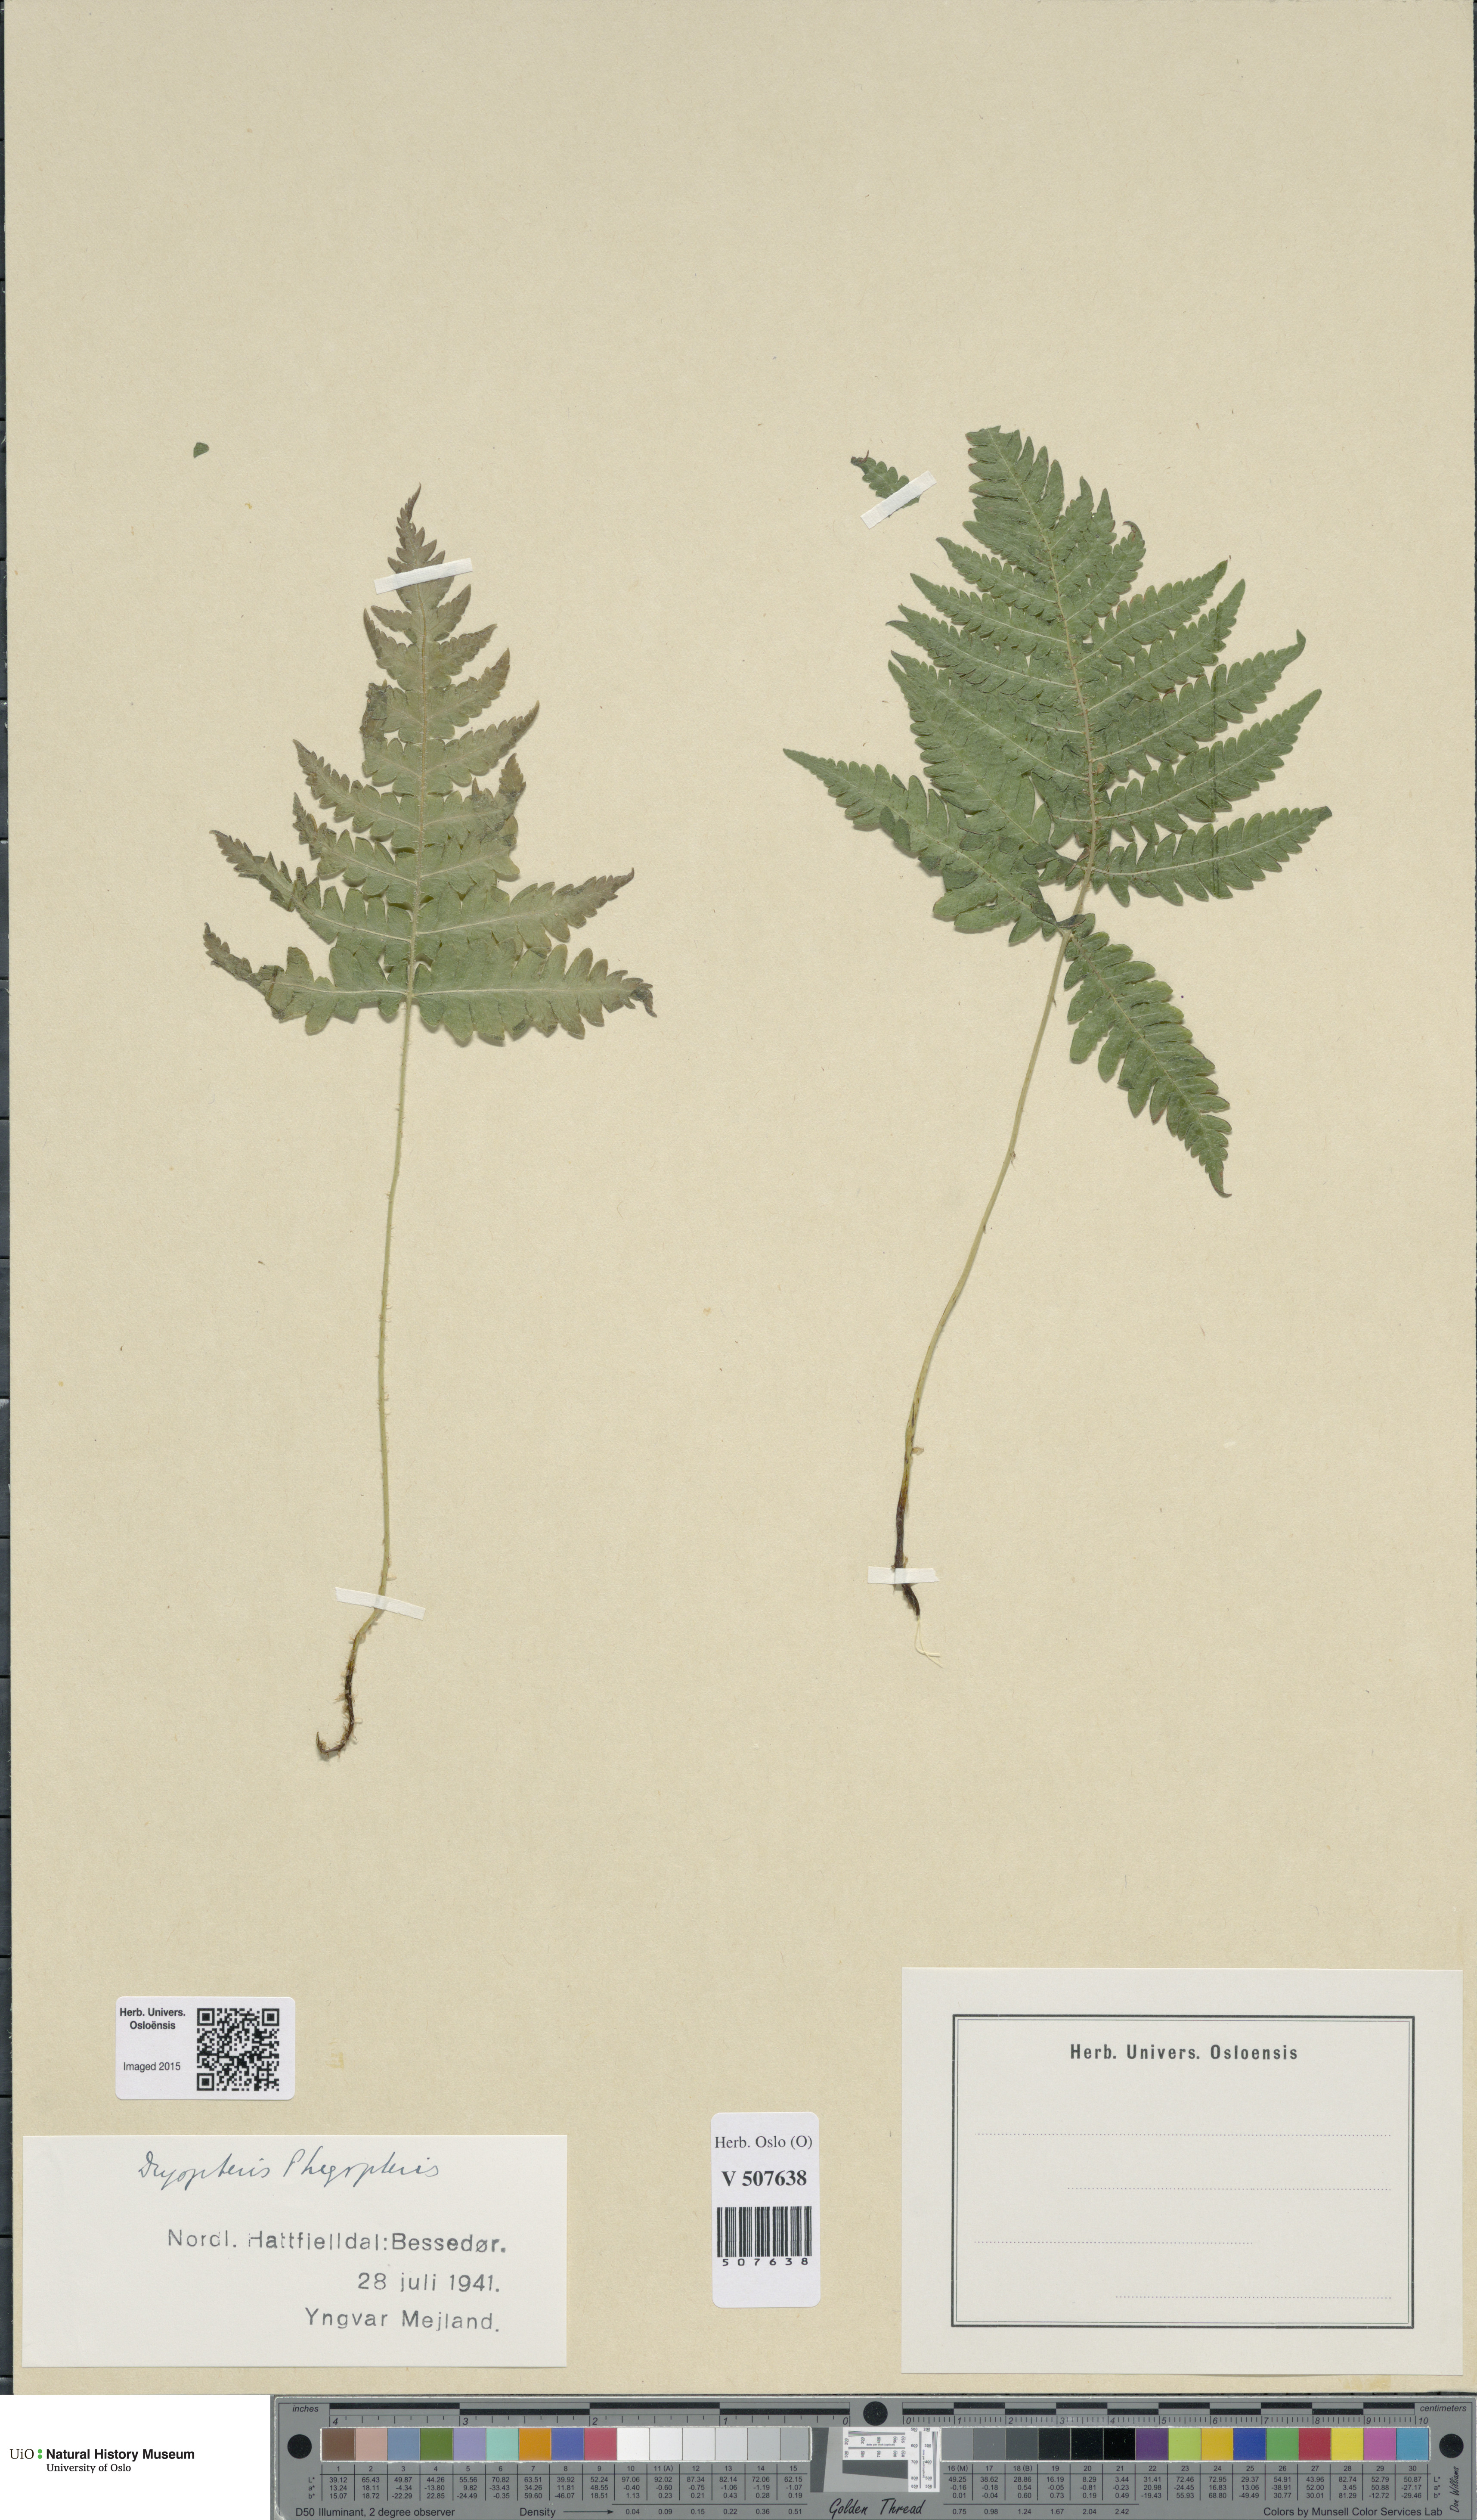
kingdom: Plantae
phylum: Tracheophyta
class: Polypodiopsida
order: Polypodiales
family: Thelypteridaceae
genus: Phegopteris
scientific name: Phegopteris connectilis
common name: Beech fern
